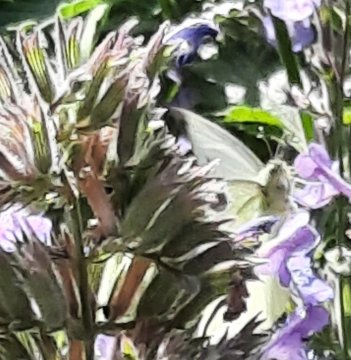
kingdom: Animalia
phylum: Arthropoda
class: Insecta
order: Lepidoptera
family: Pieridae
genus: Pieris
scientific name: Pieris rapae
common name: Cabbage White
